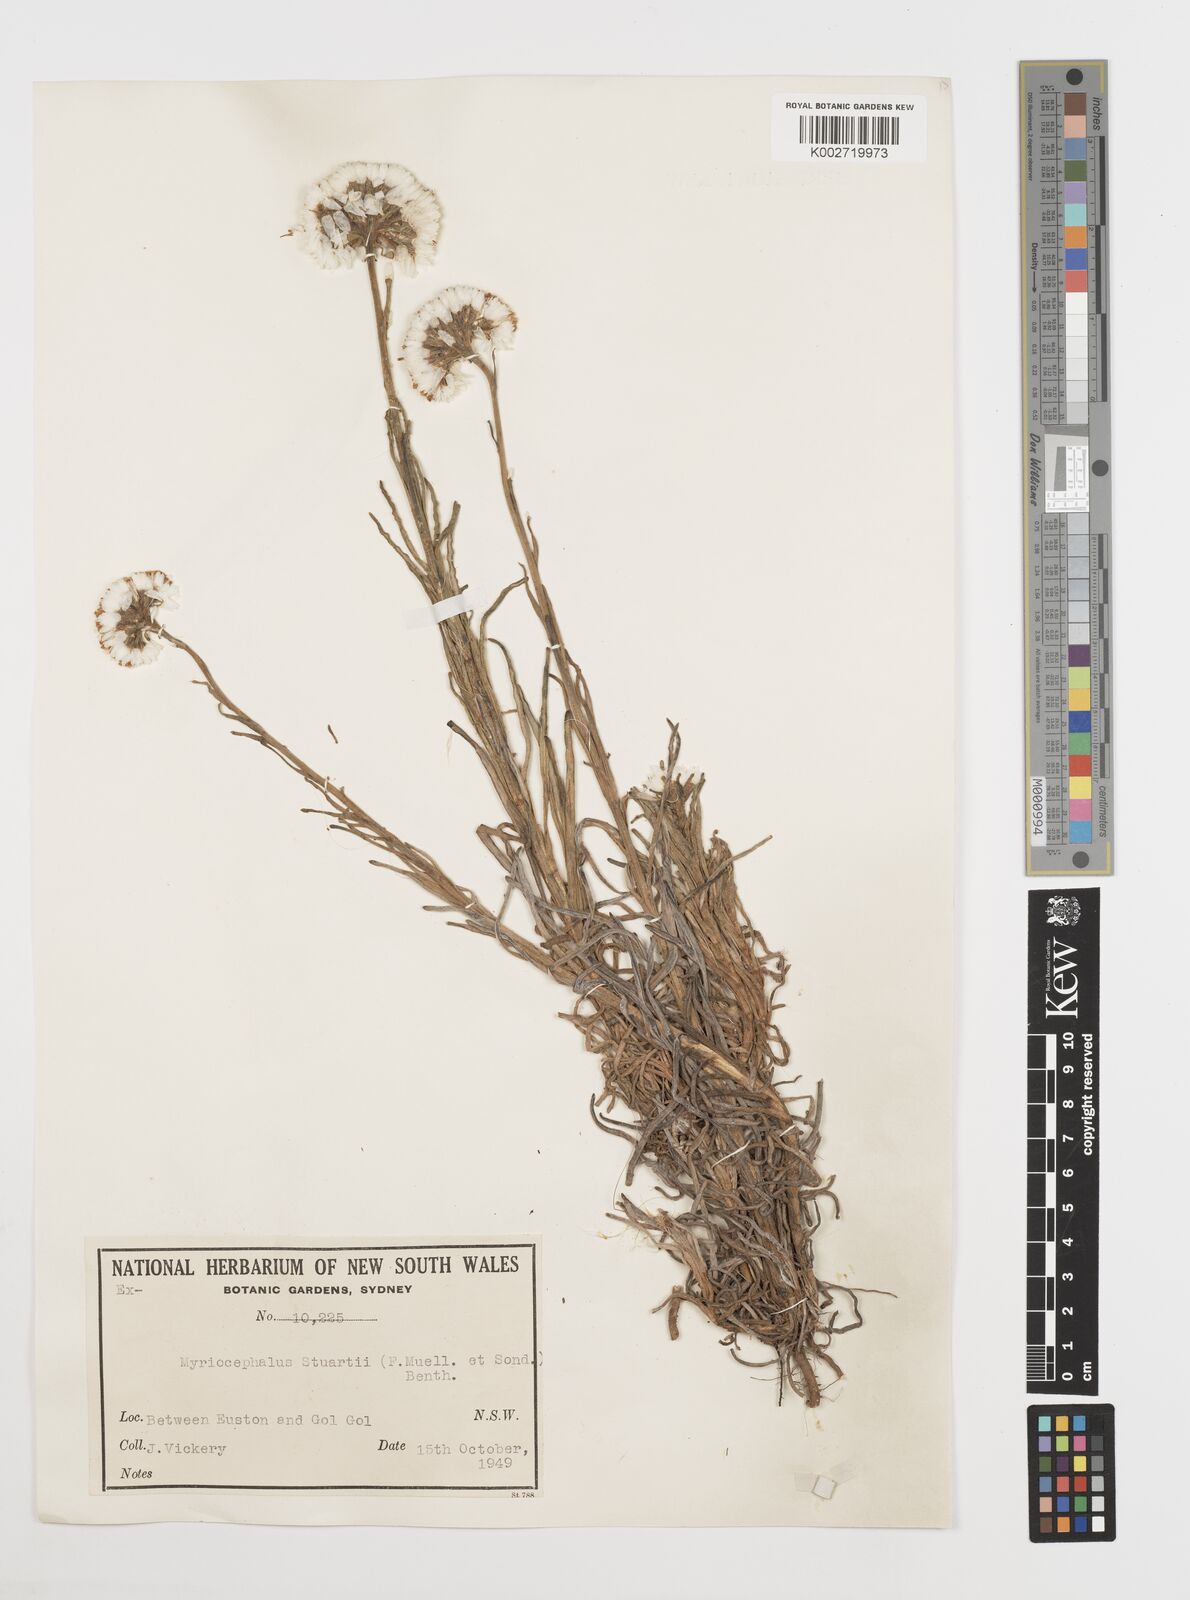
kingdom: Plantae
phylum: Tracheophyta
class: Magnoliopsida
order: Asterales
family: Asteraceae
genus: Polycalymma
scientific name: Polycalymma stuartii
